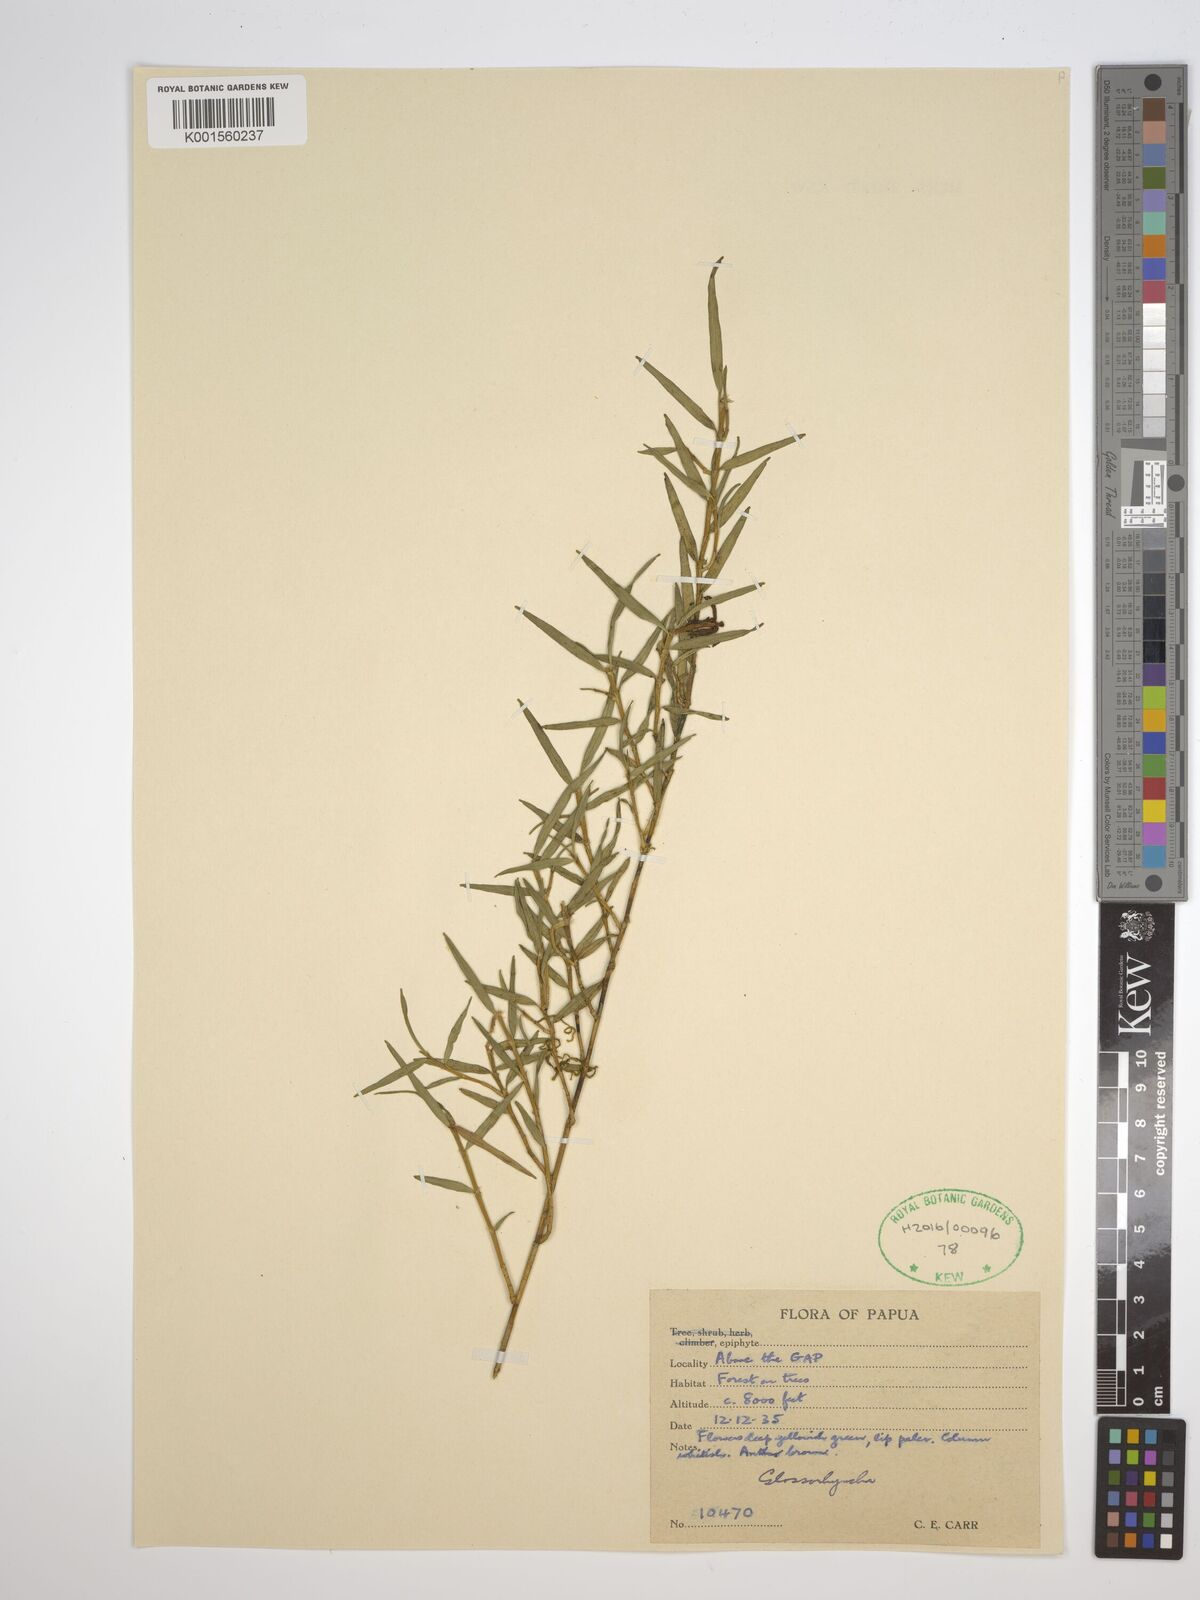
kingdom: Plantae
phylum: Tracheophyta
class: Liliopsida
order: Asparagales
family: Orchidaceae
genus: Glomera
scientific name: Glomera
